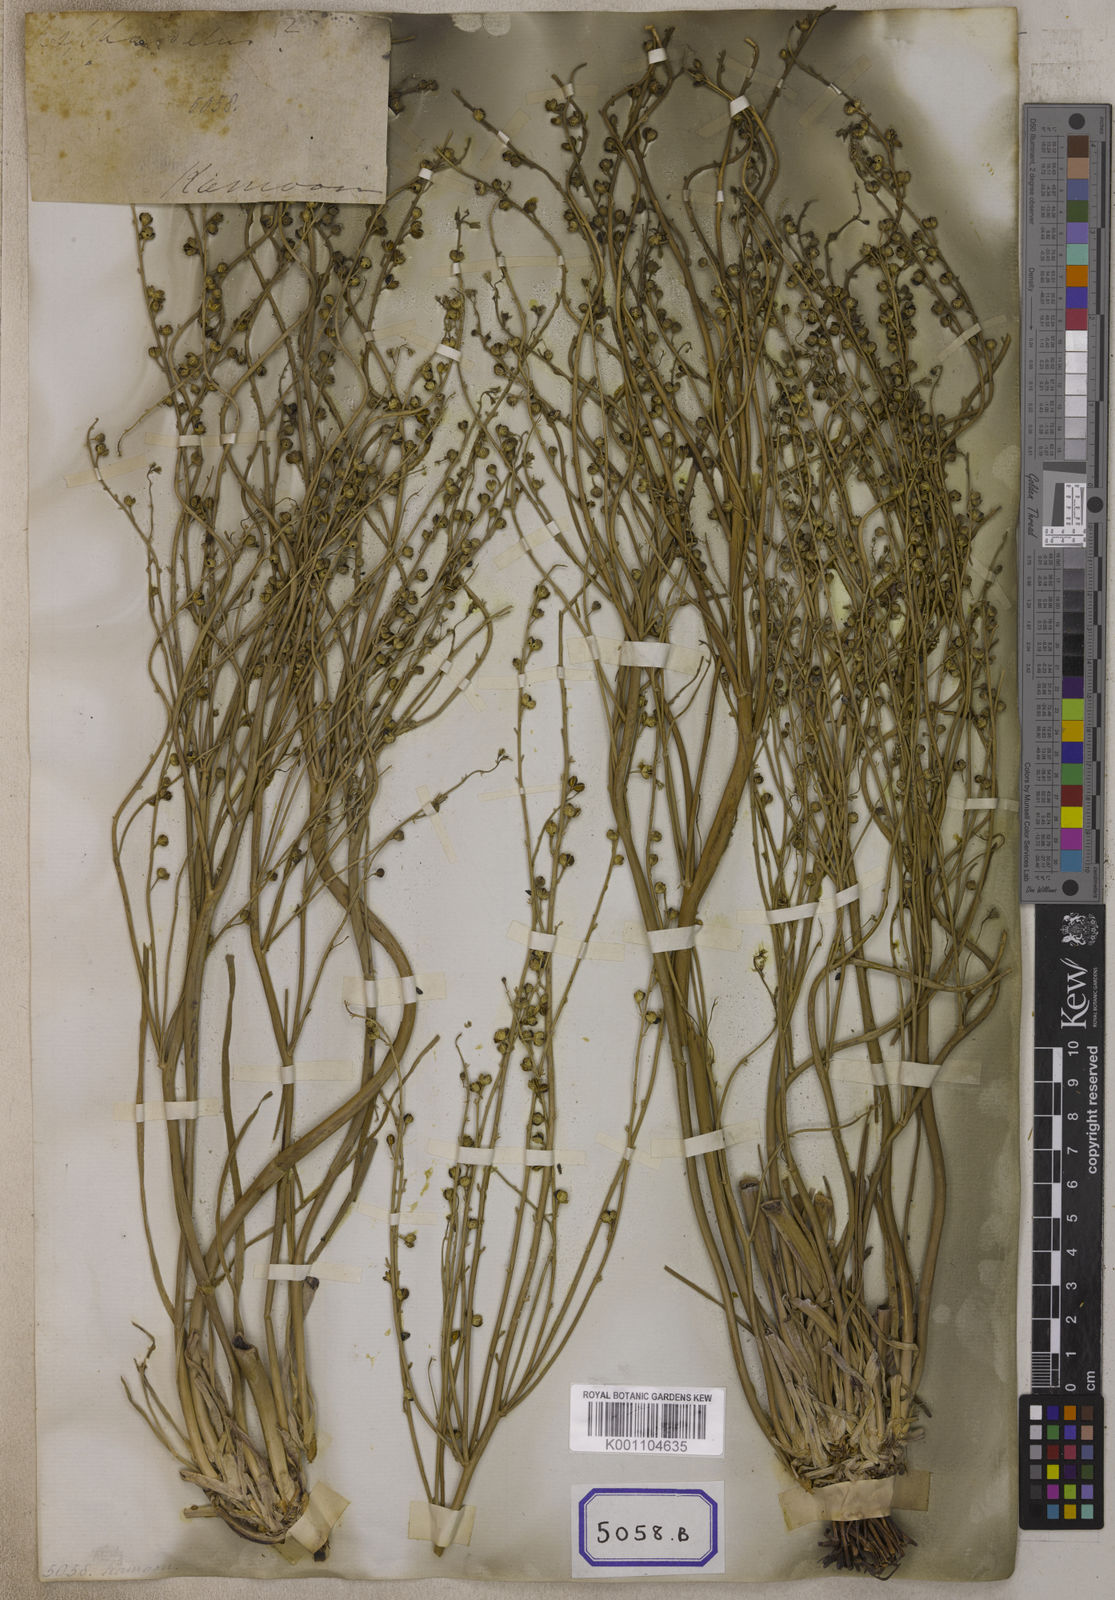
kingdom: Plantae
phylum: Tracheophyta
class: Liliopsida
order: Asparagales
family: Asphodelaceae
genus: Asphodelus
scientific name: Asphodelus
